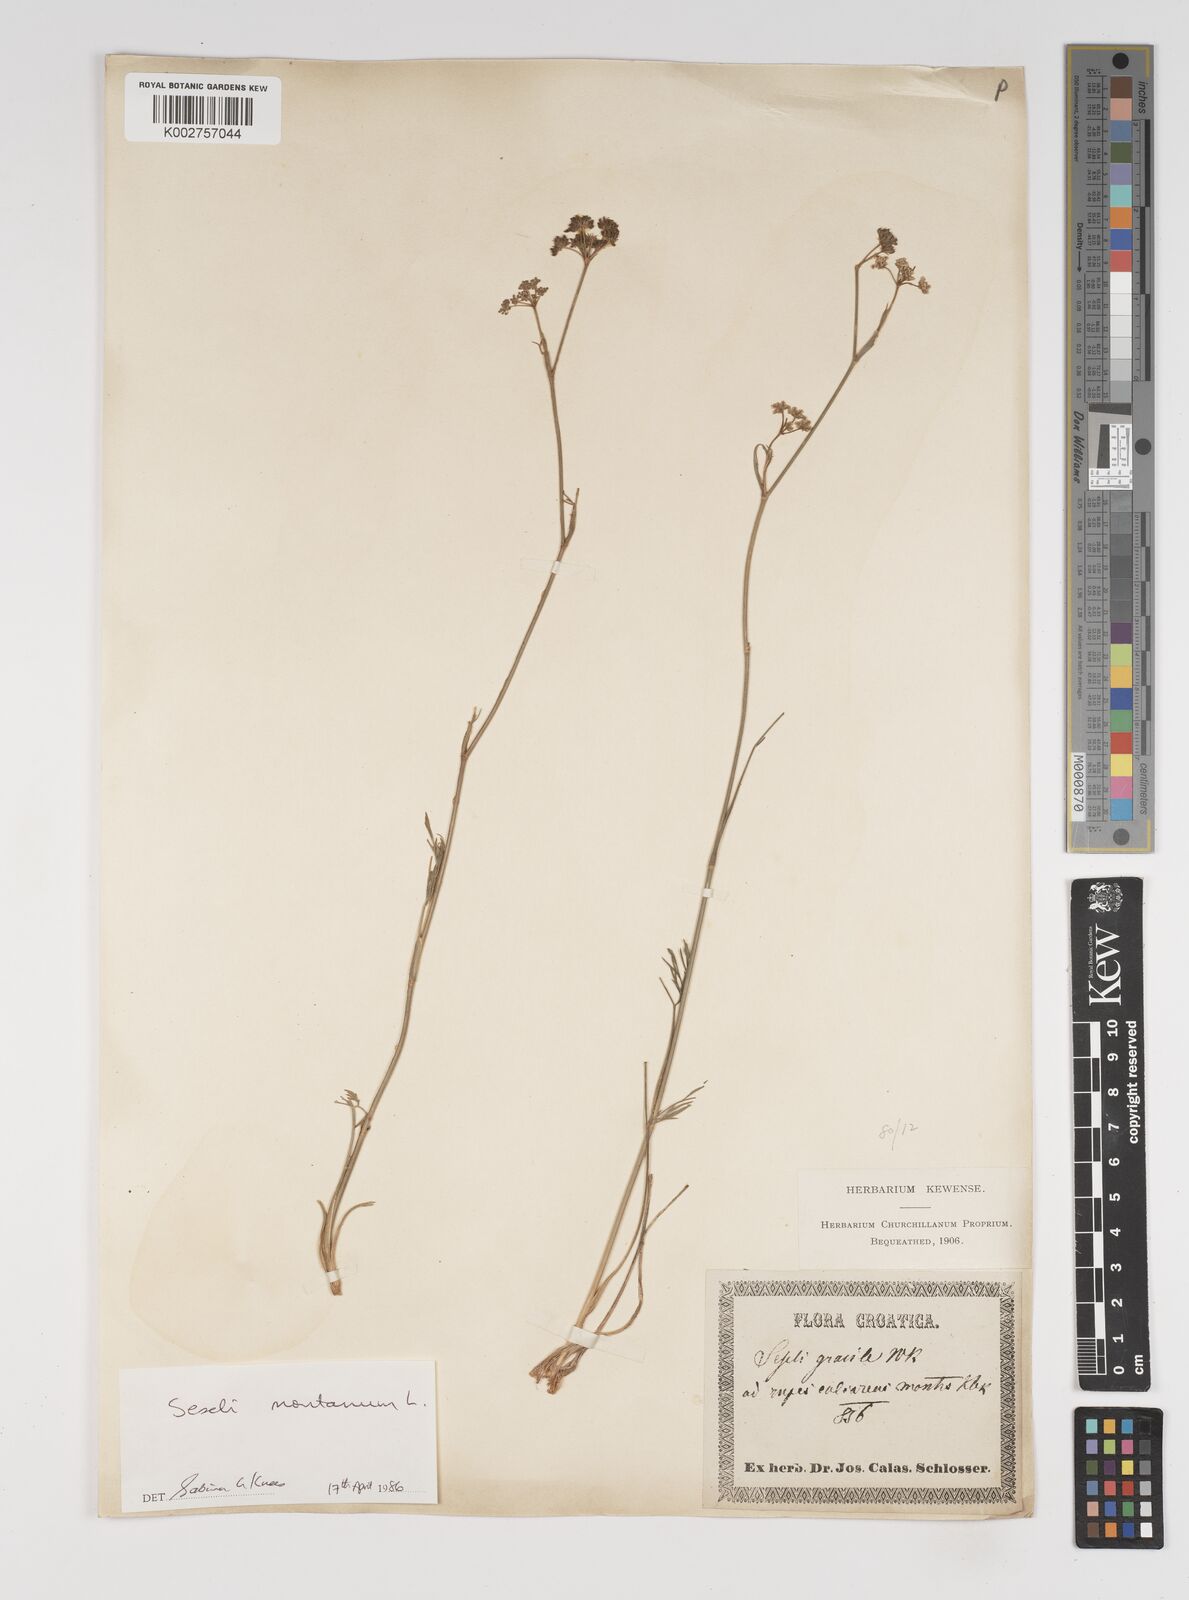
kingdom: Plantae
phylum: Tracheophyta
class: Magnoliopsida
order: Apiales
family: Apiaceae
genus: Seseli
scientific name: Seseli montanum
